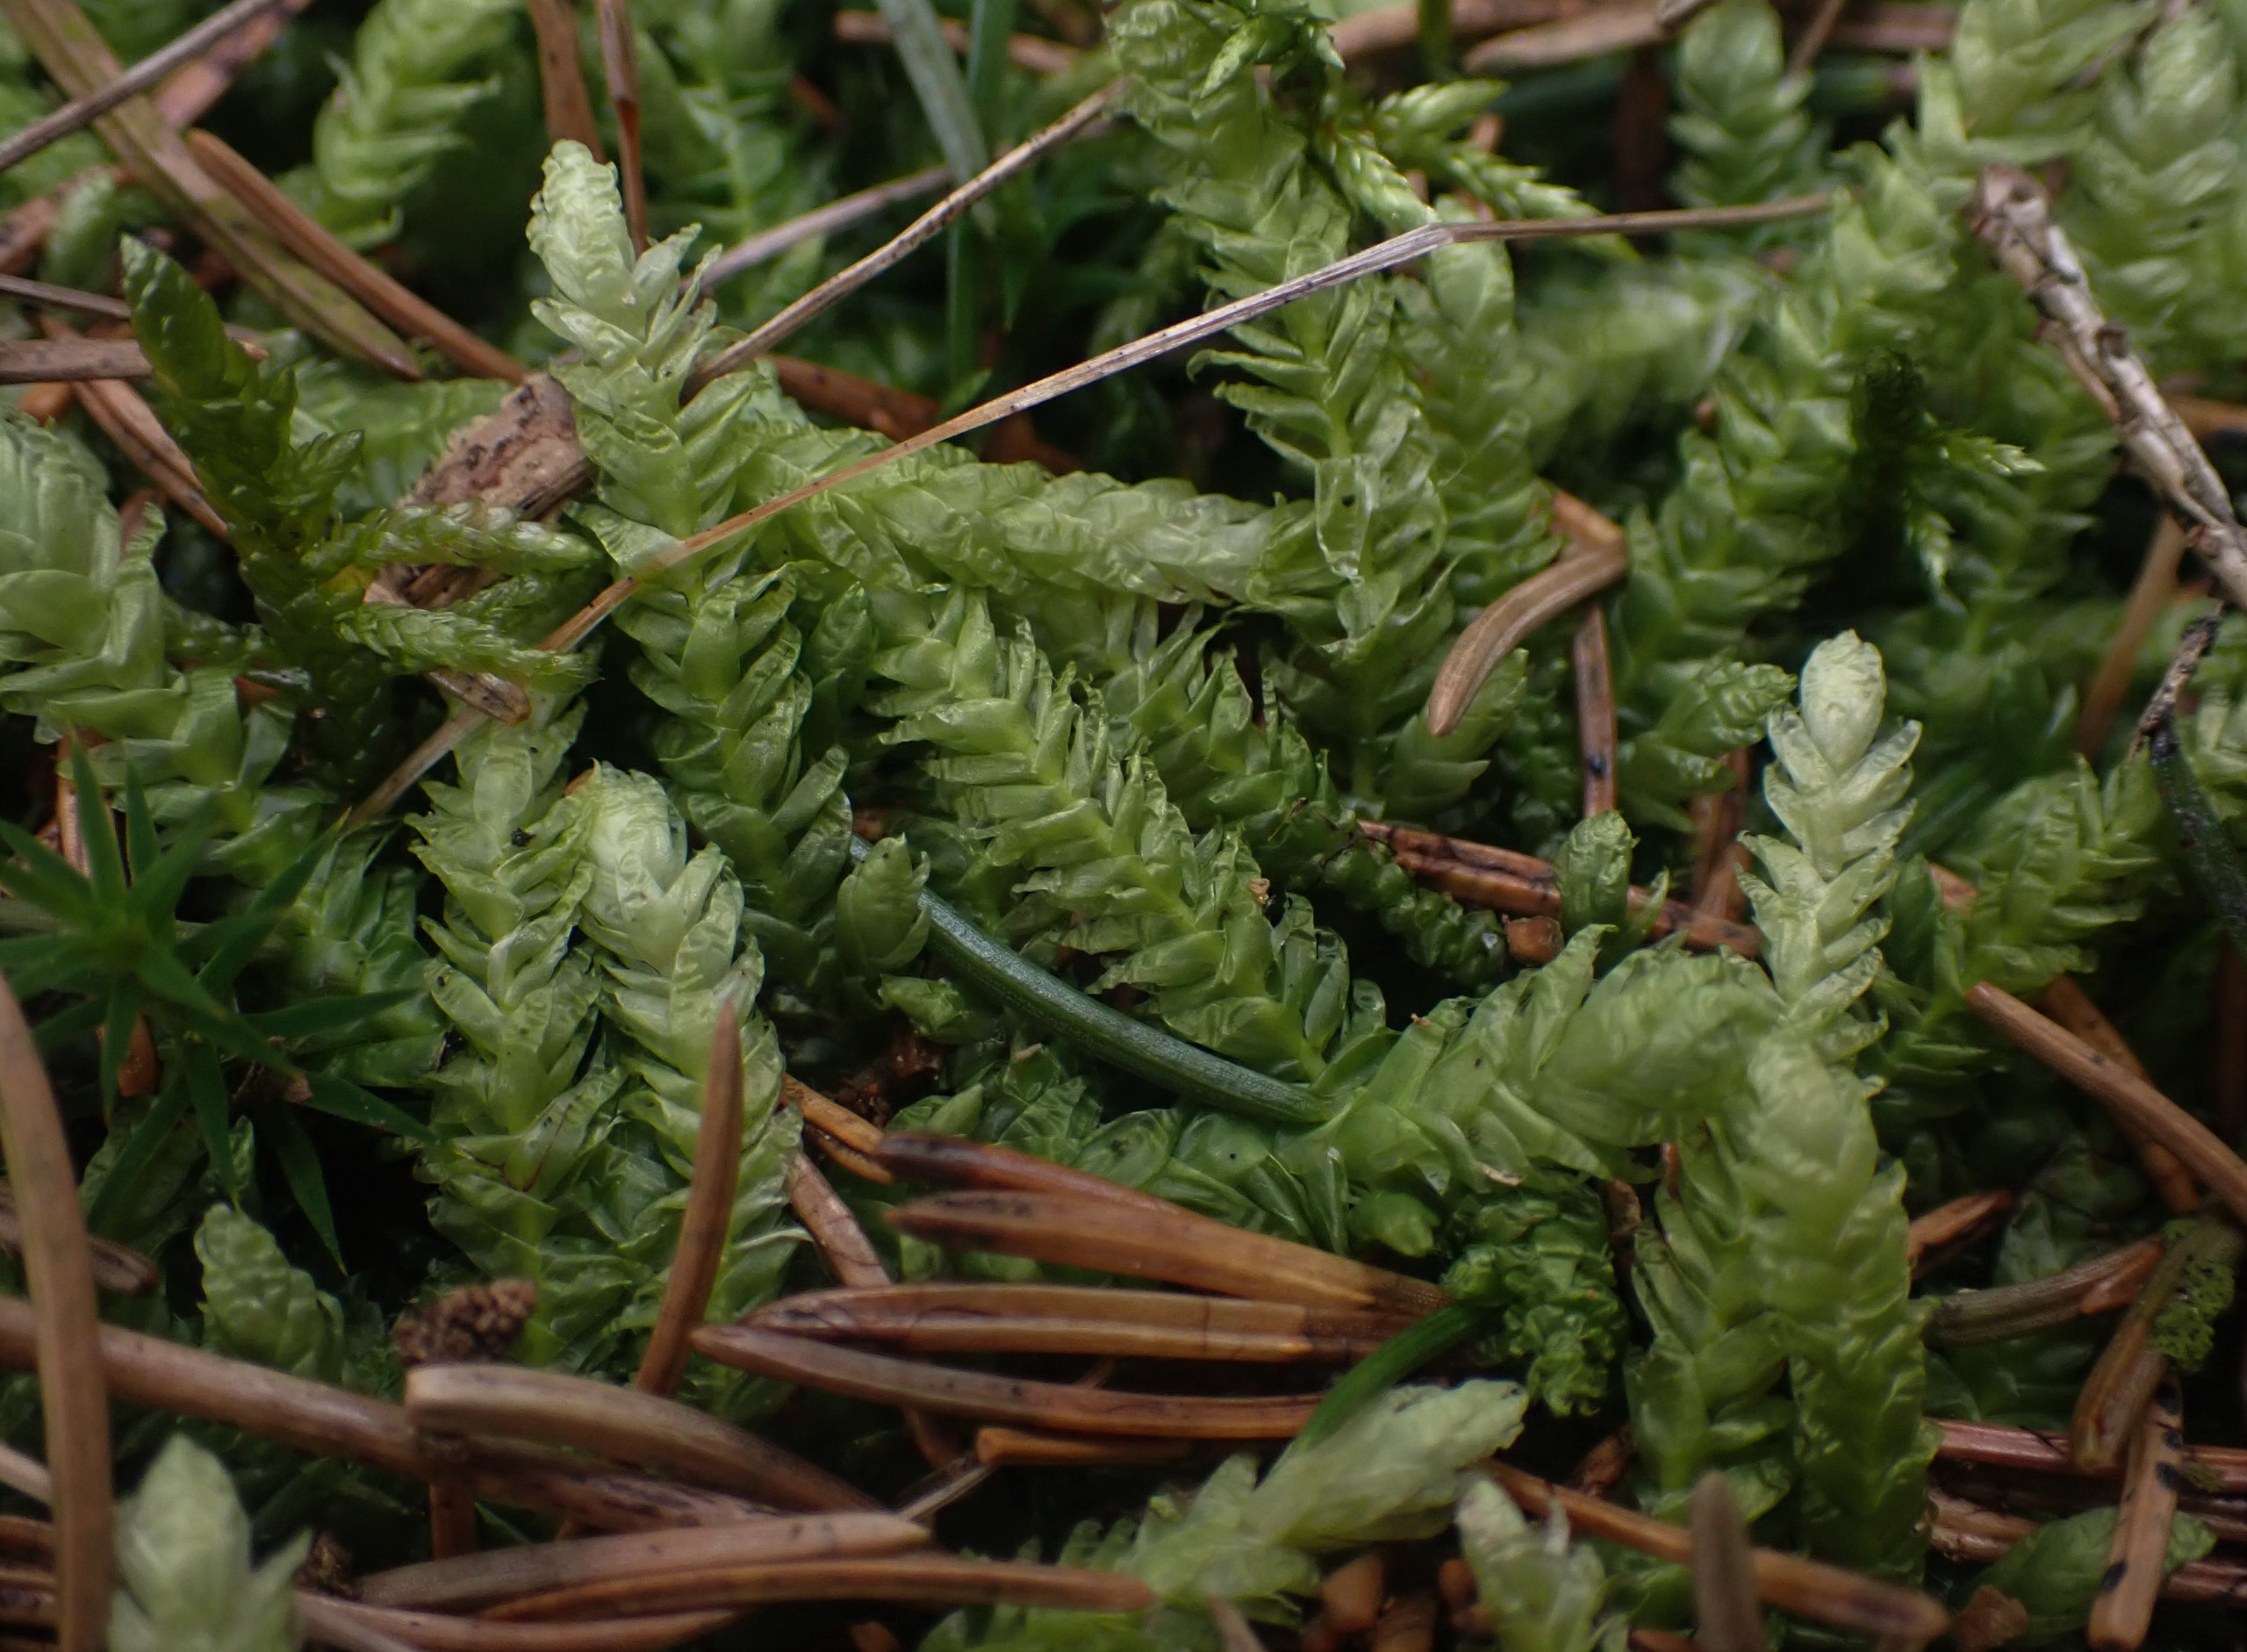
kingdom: Plantae
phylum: Bryophyta
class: Bryopsida
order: Hypnales
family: Plagiotheciaceae
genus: Plagiothecium
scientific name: Plagiothecium undulatum
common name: Bølget tæppemos
